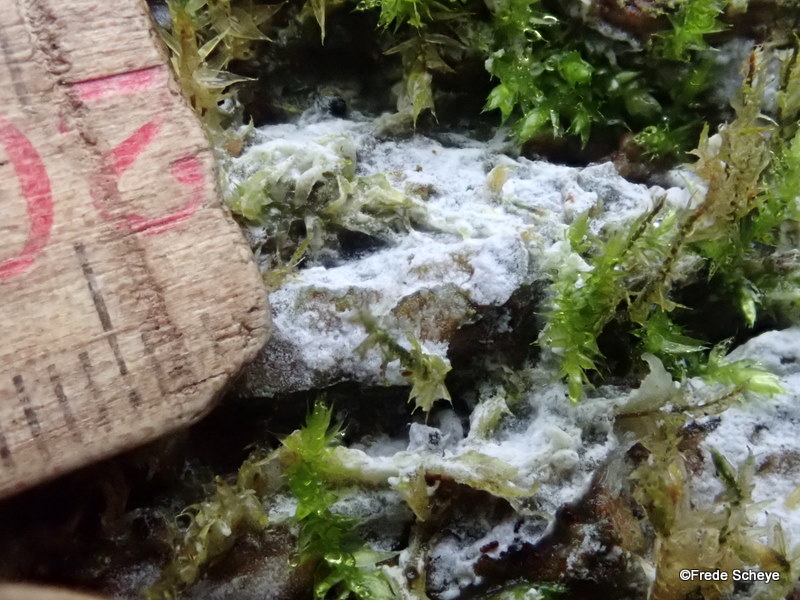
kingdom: Fungi
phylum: Basidiomycota
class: Agaricomycetes
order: Corticiales
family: Corticiaceae
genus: Lyomyces
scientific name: Lyomyces sambuci
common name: almindelig hyldehinde
